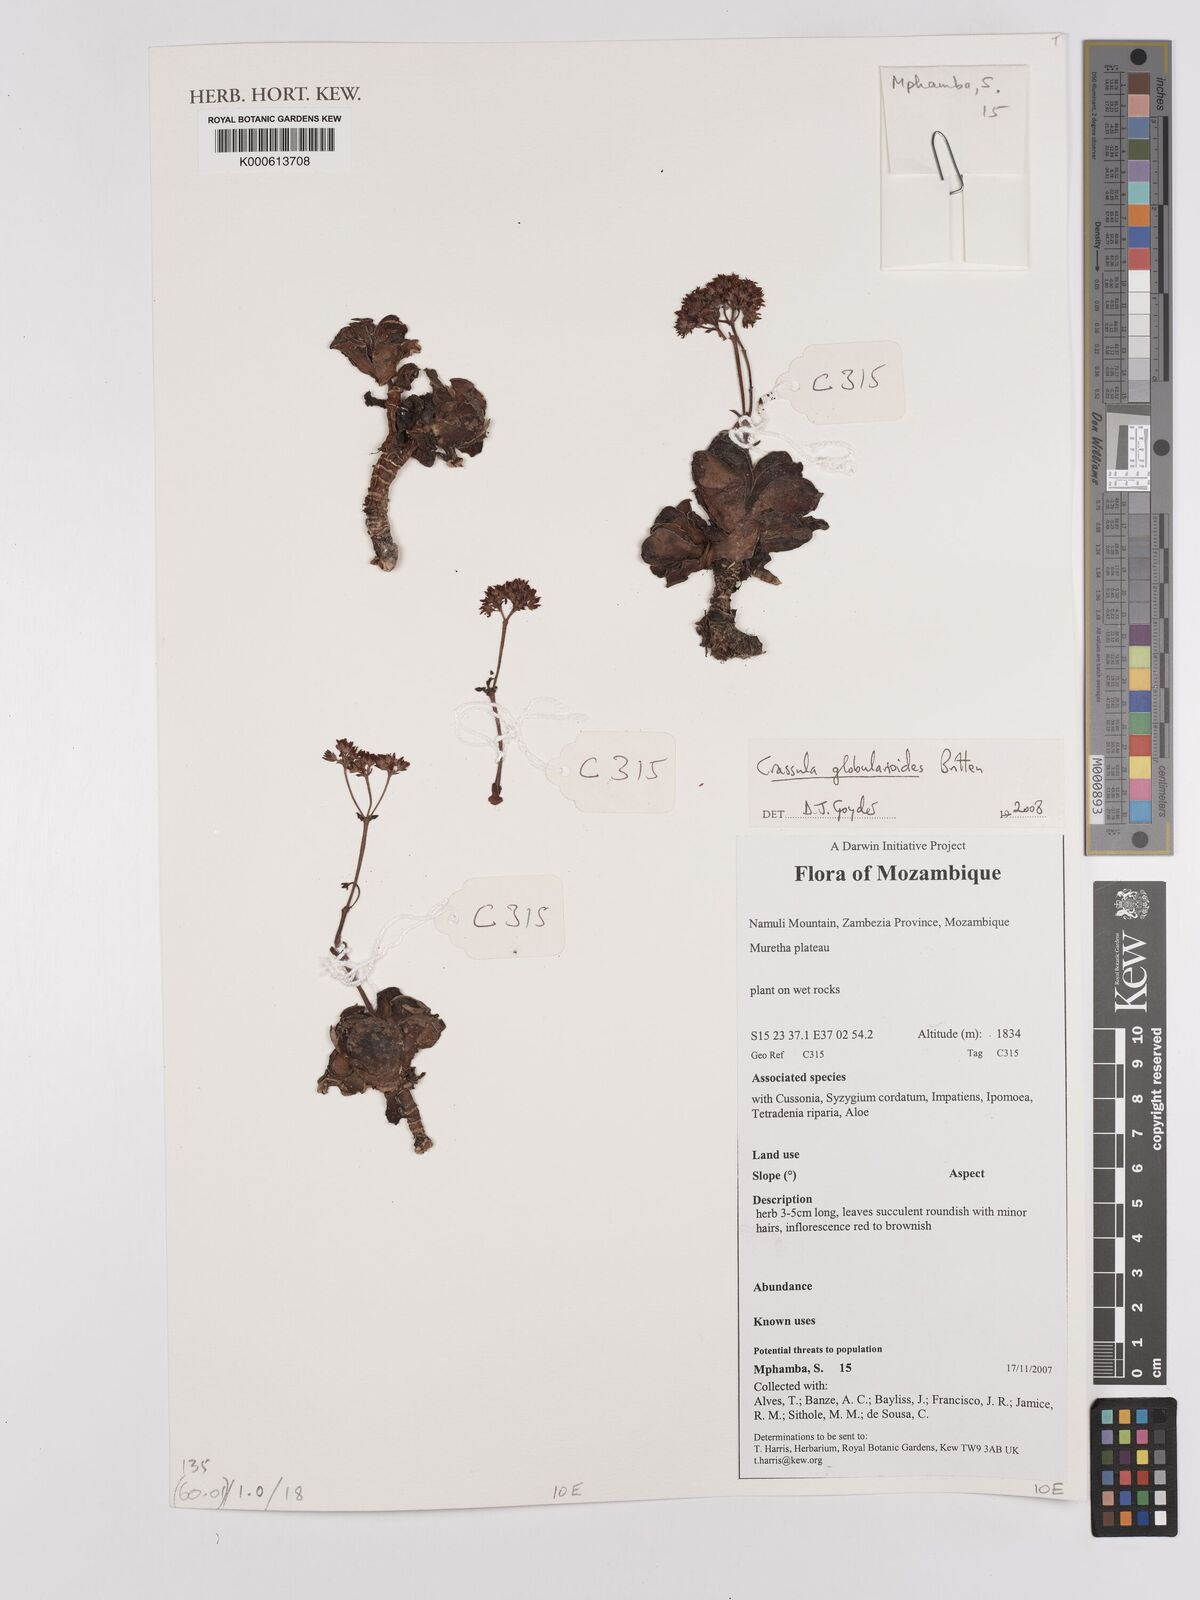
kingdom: Plantae
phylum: Tracheophyta
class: Magnoliopsida
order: Saxifragales
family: Crassulaceae
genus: Crassula
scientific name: Crassula globularioides
